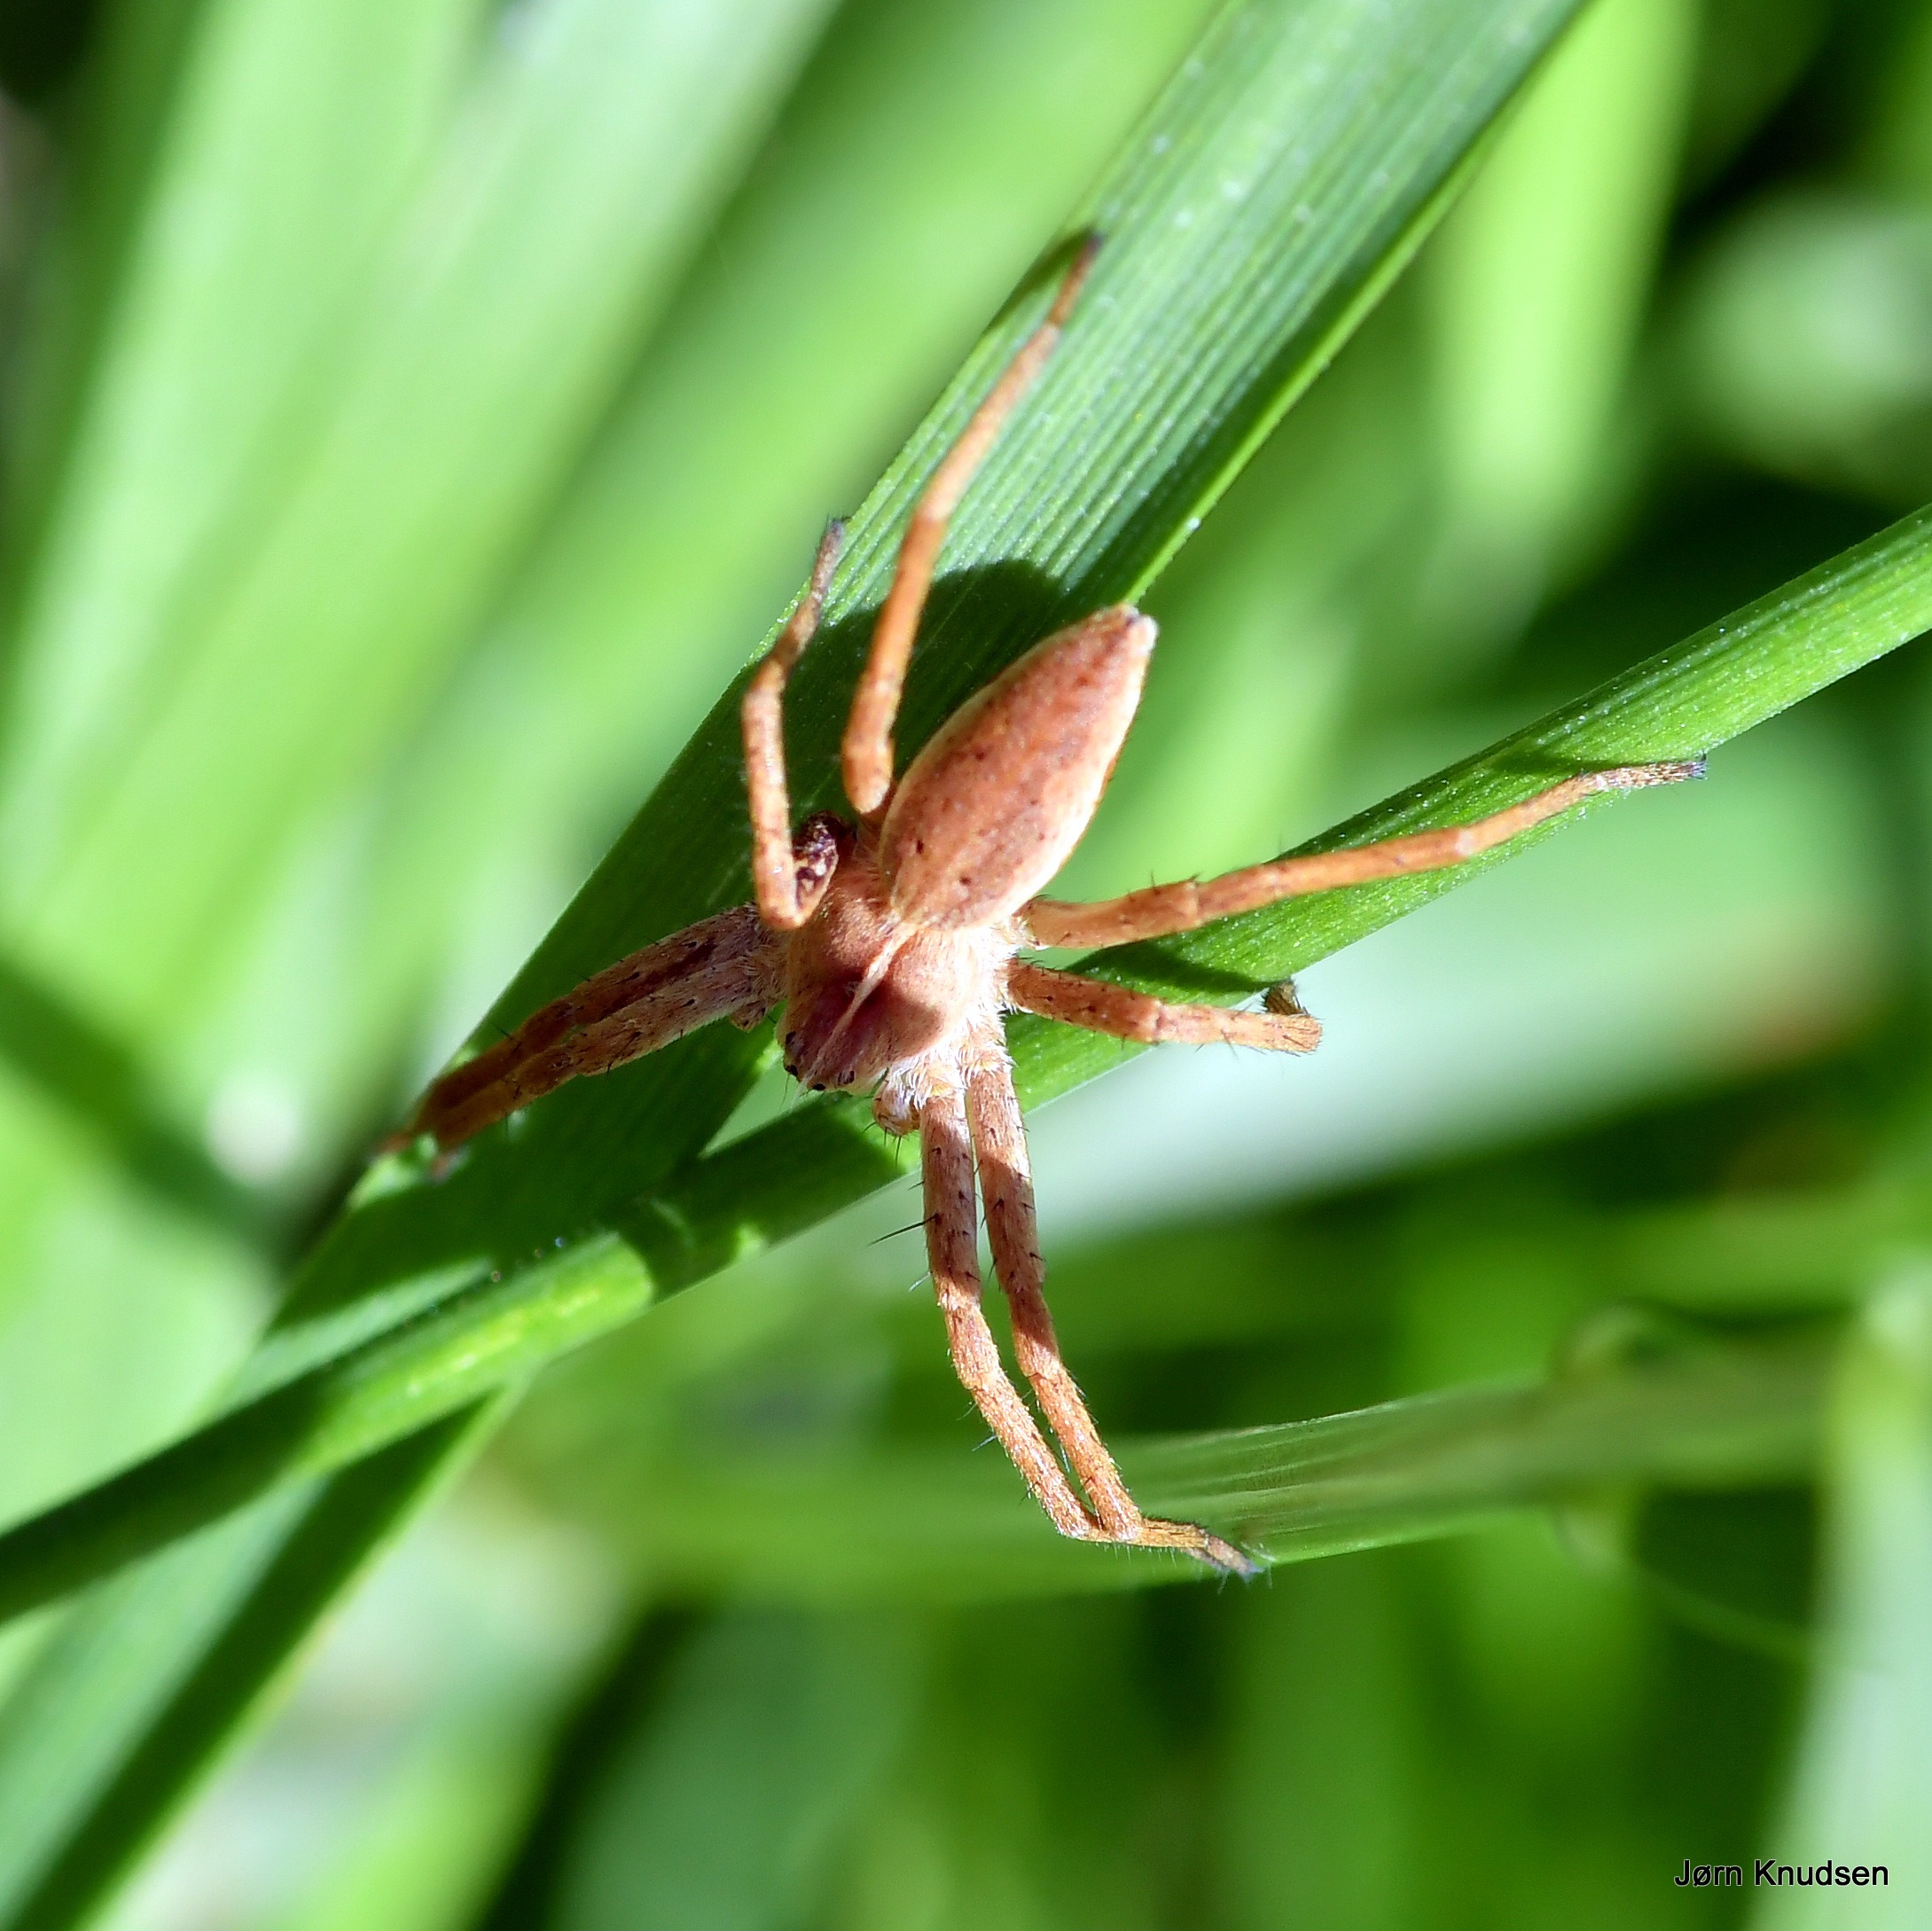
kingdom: Animalia
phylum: Arthropoda
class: Arachnida
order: Araneae
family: Pisauridae
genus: Pisaura
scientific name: Pisaura mirabilis
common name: Almindelig rovedderkop
